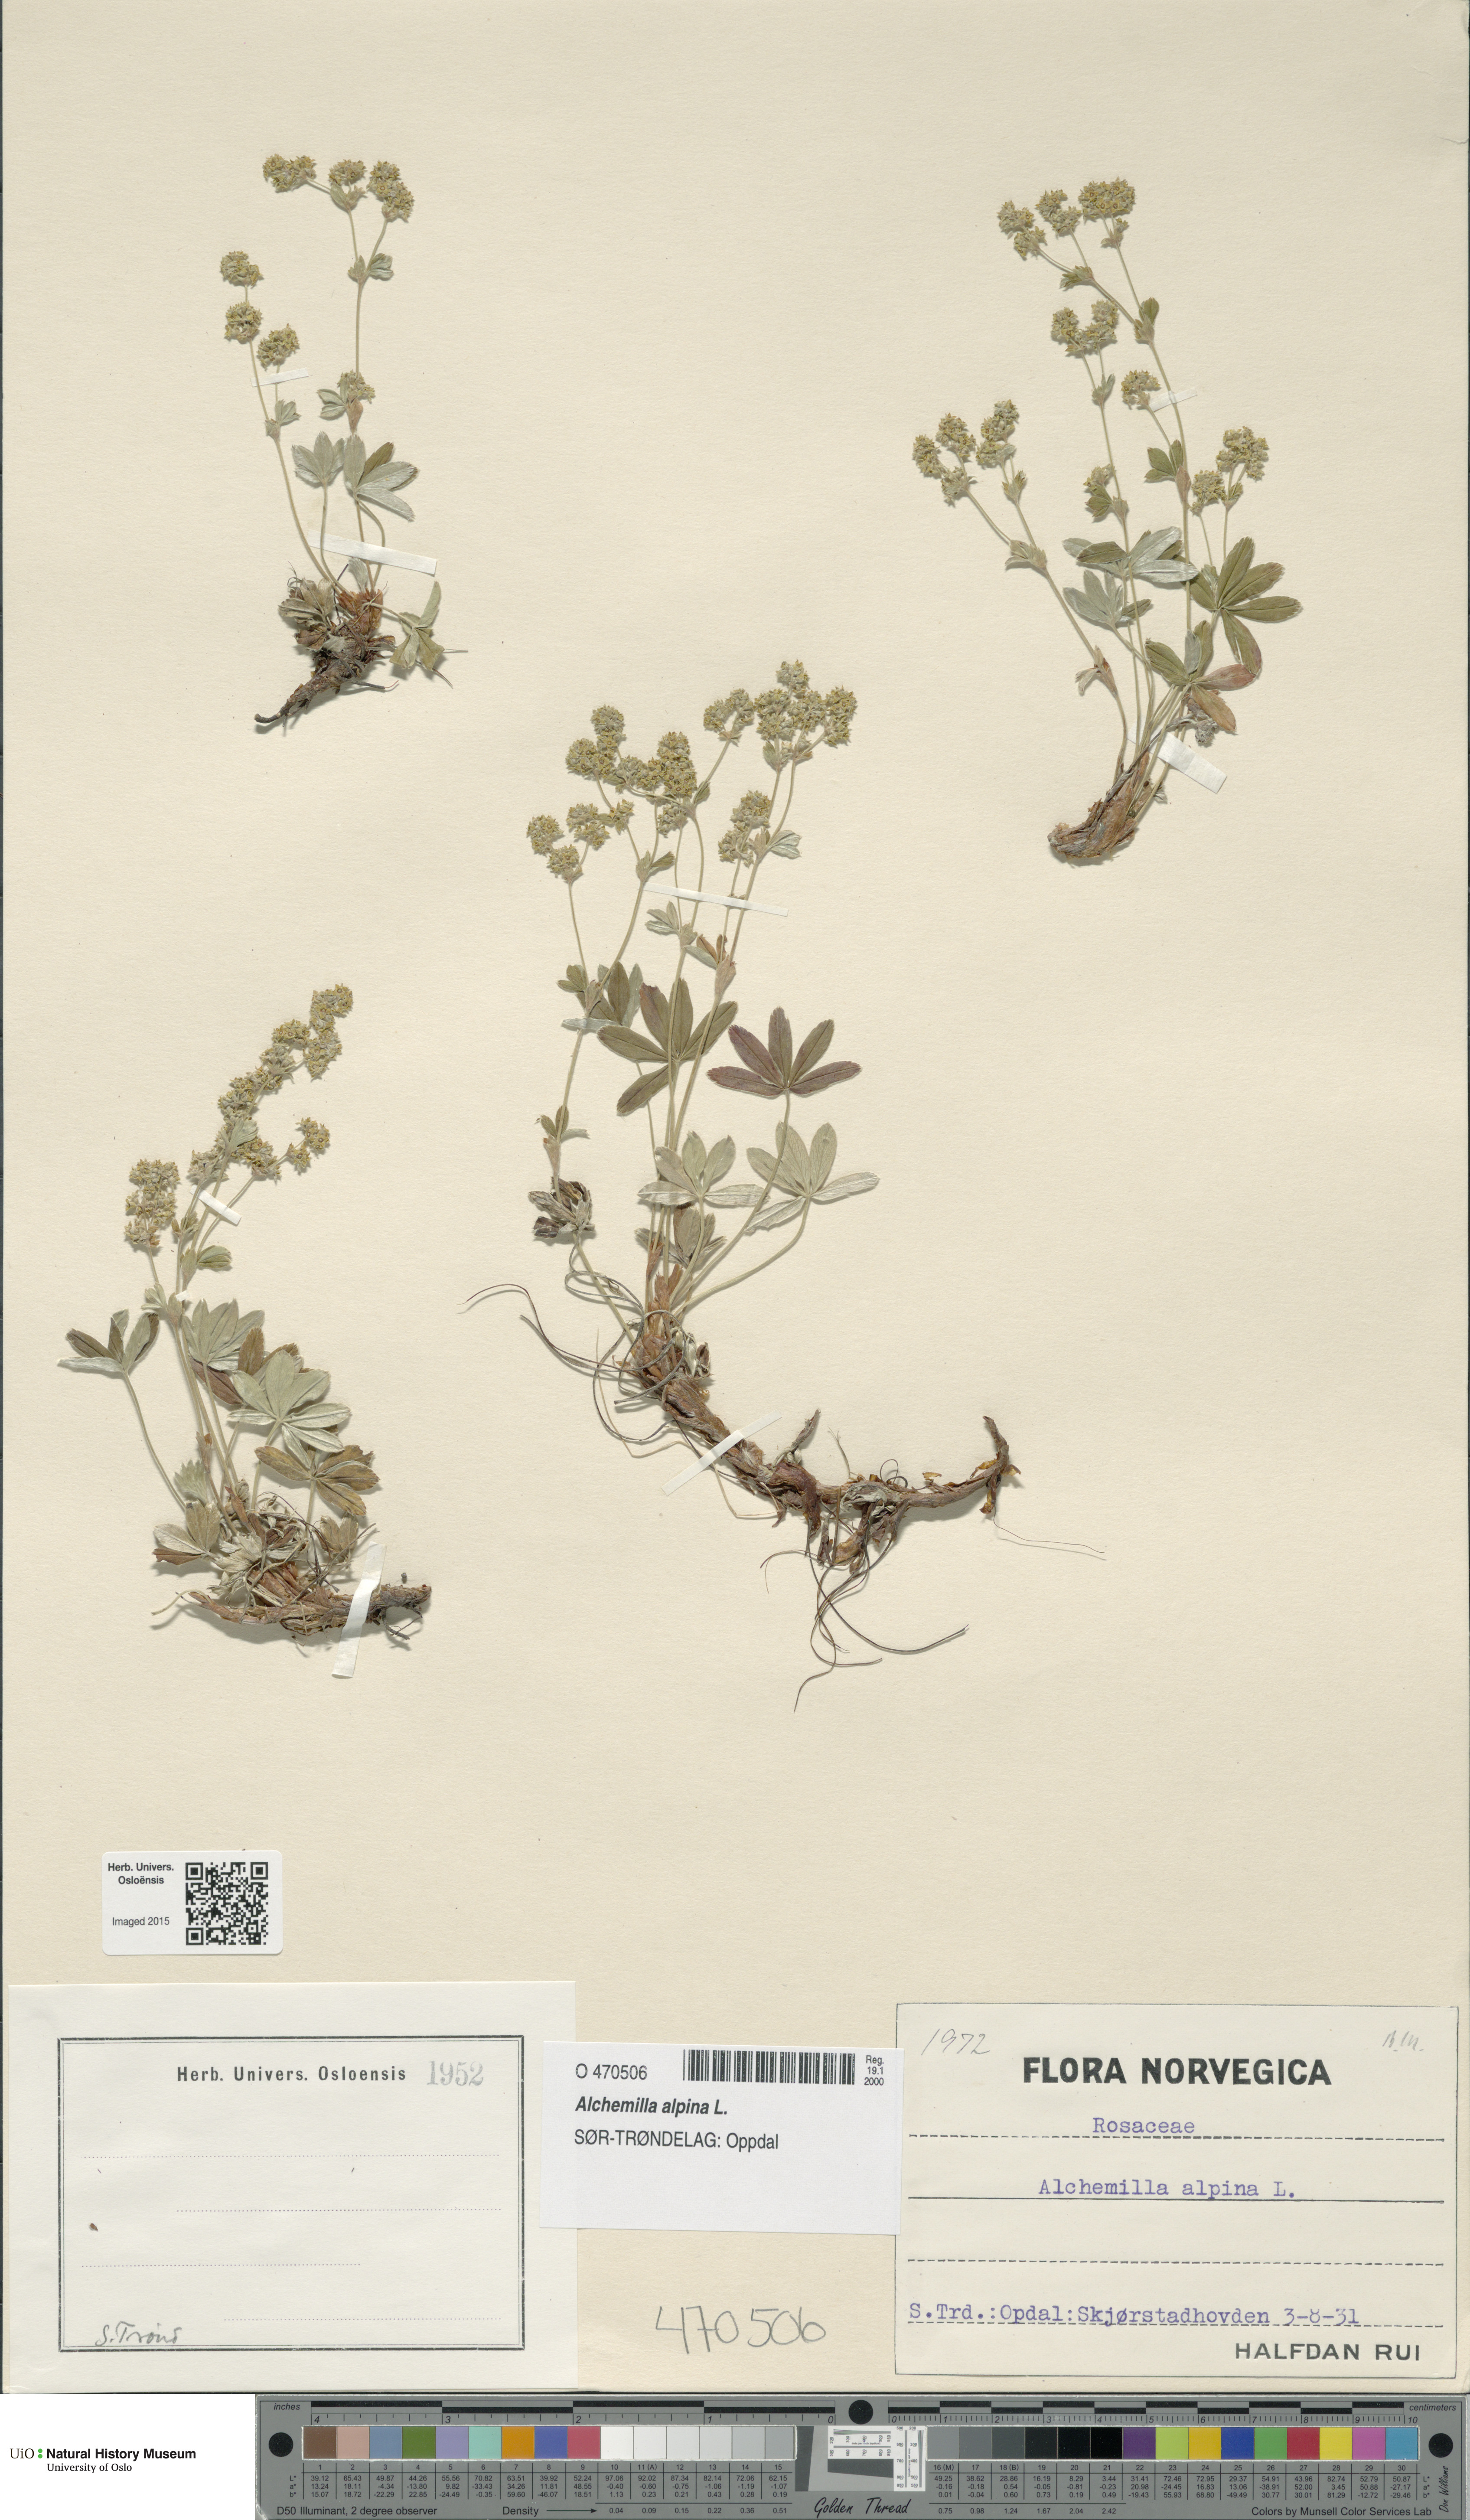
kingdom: Plantae
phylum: Tracheophyta
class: Magnoliopsida
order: Rosales
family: Rosaceae
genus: Alchemilla
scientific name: Alchemilla alpina
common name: Alpine lady's-mantle
